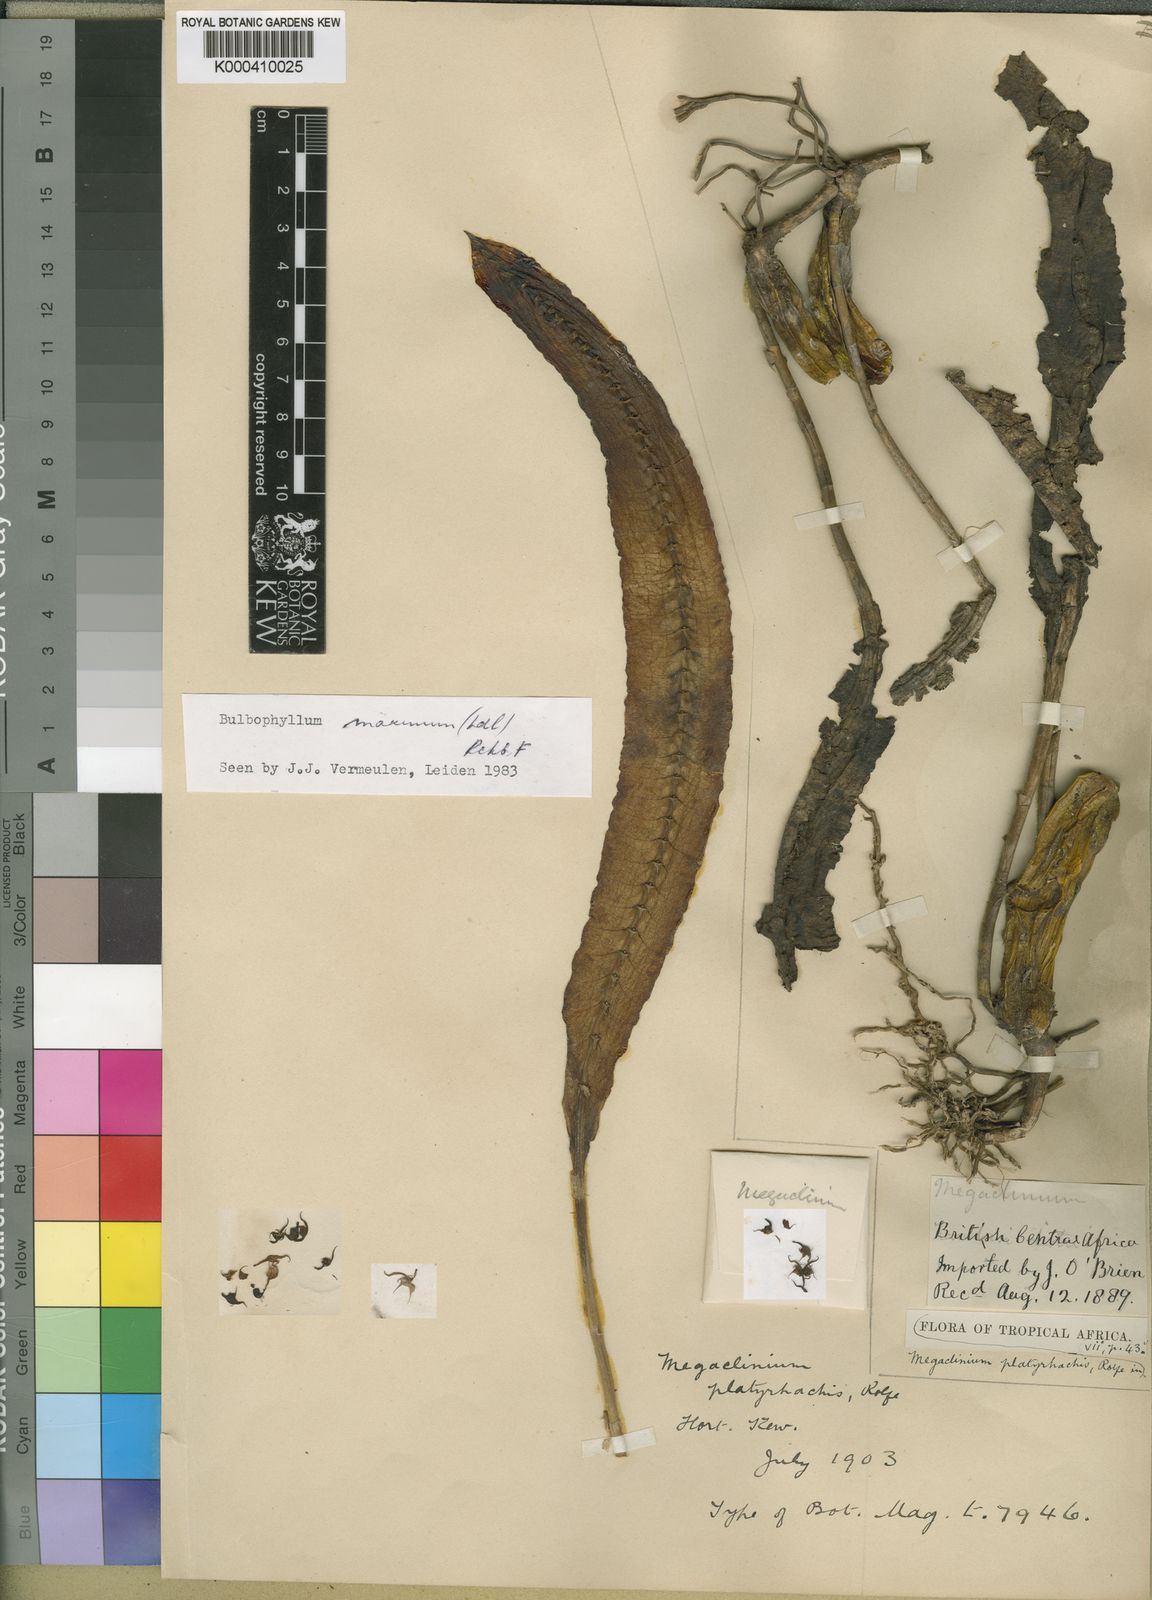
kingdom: Plantae
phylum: Tracheophyta
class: Liliopsida
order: Asparagales
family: Orchidaceae
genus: Bulbophyllum
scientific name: Bulbophyllum maximum
